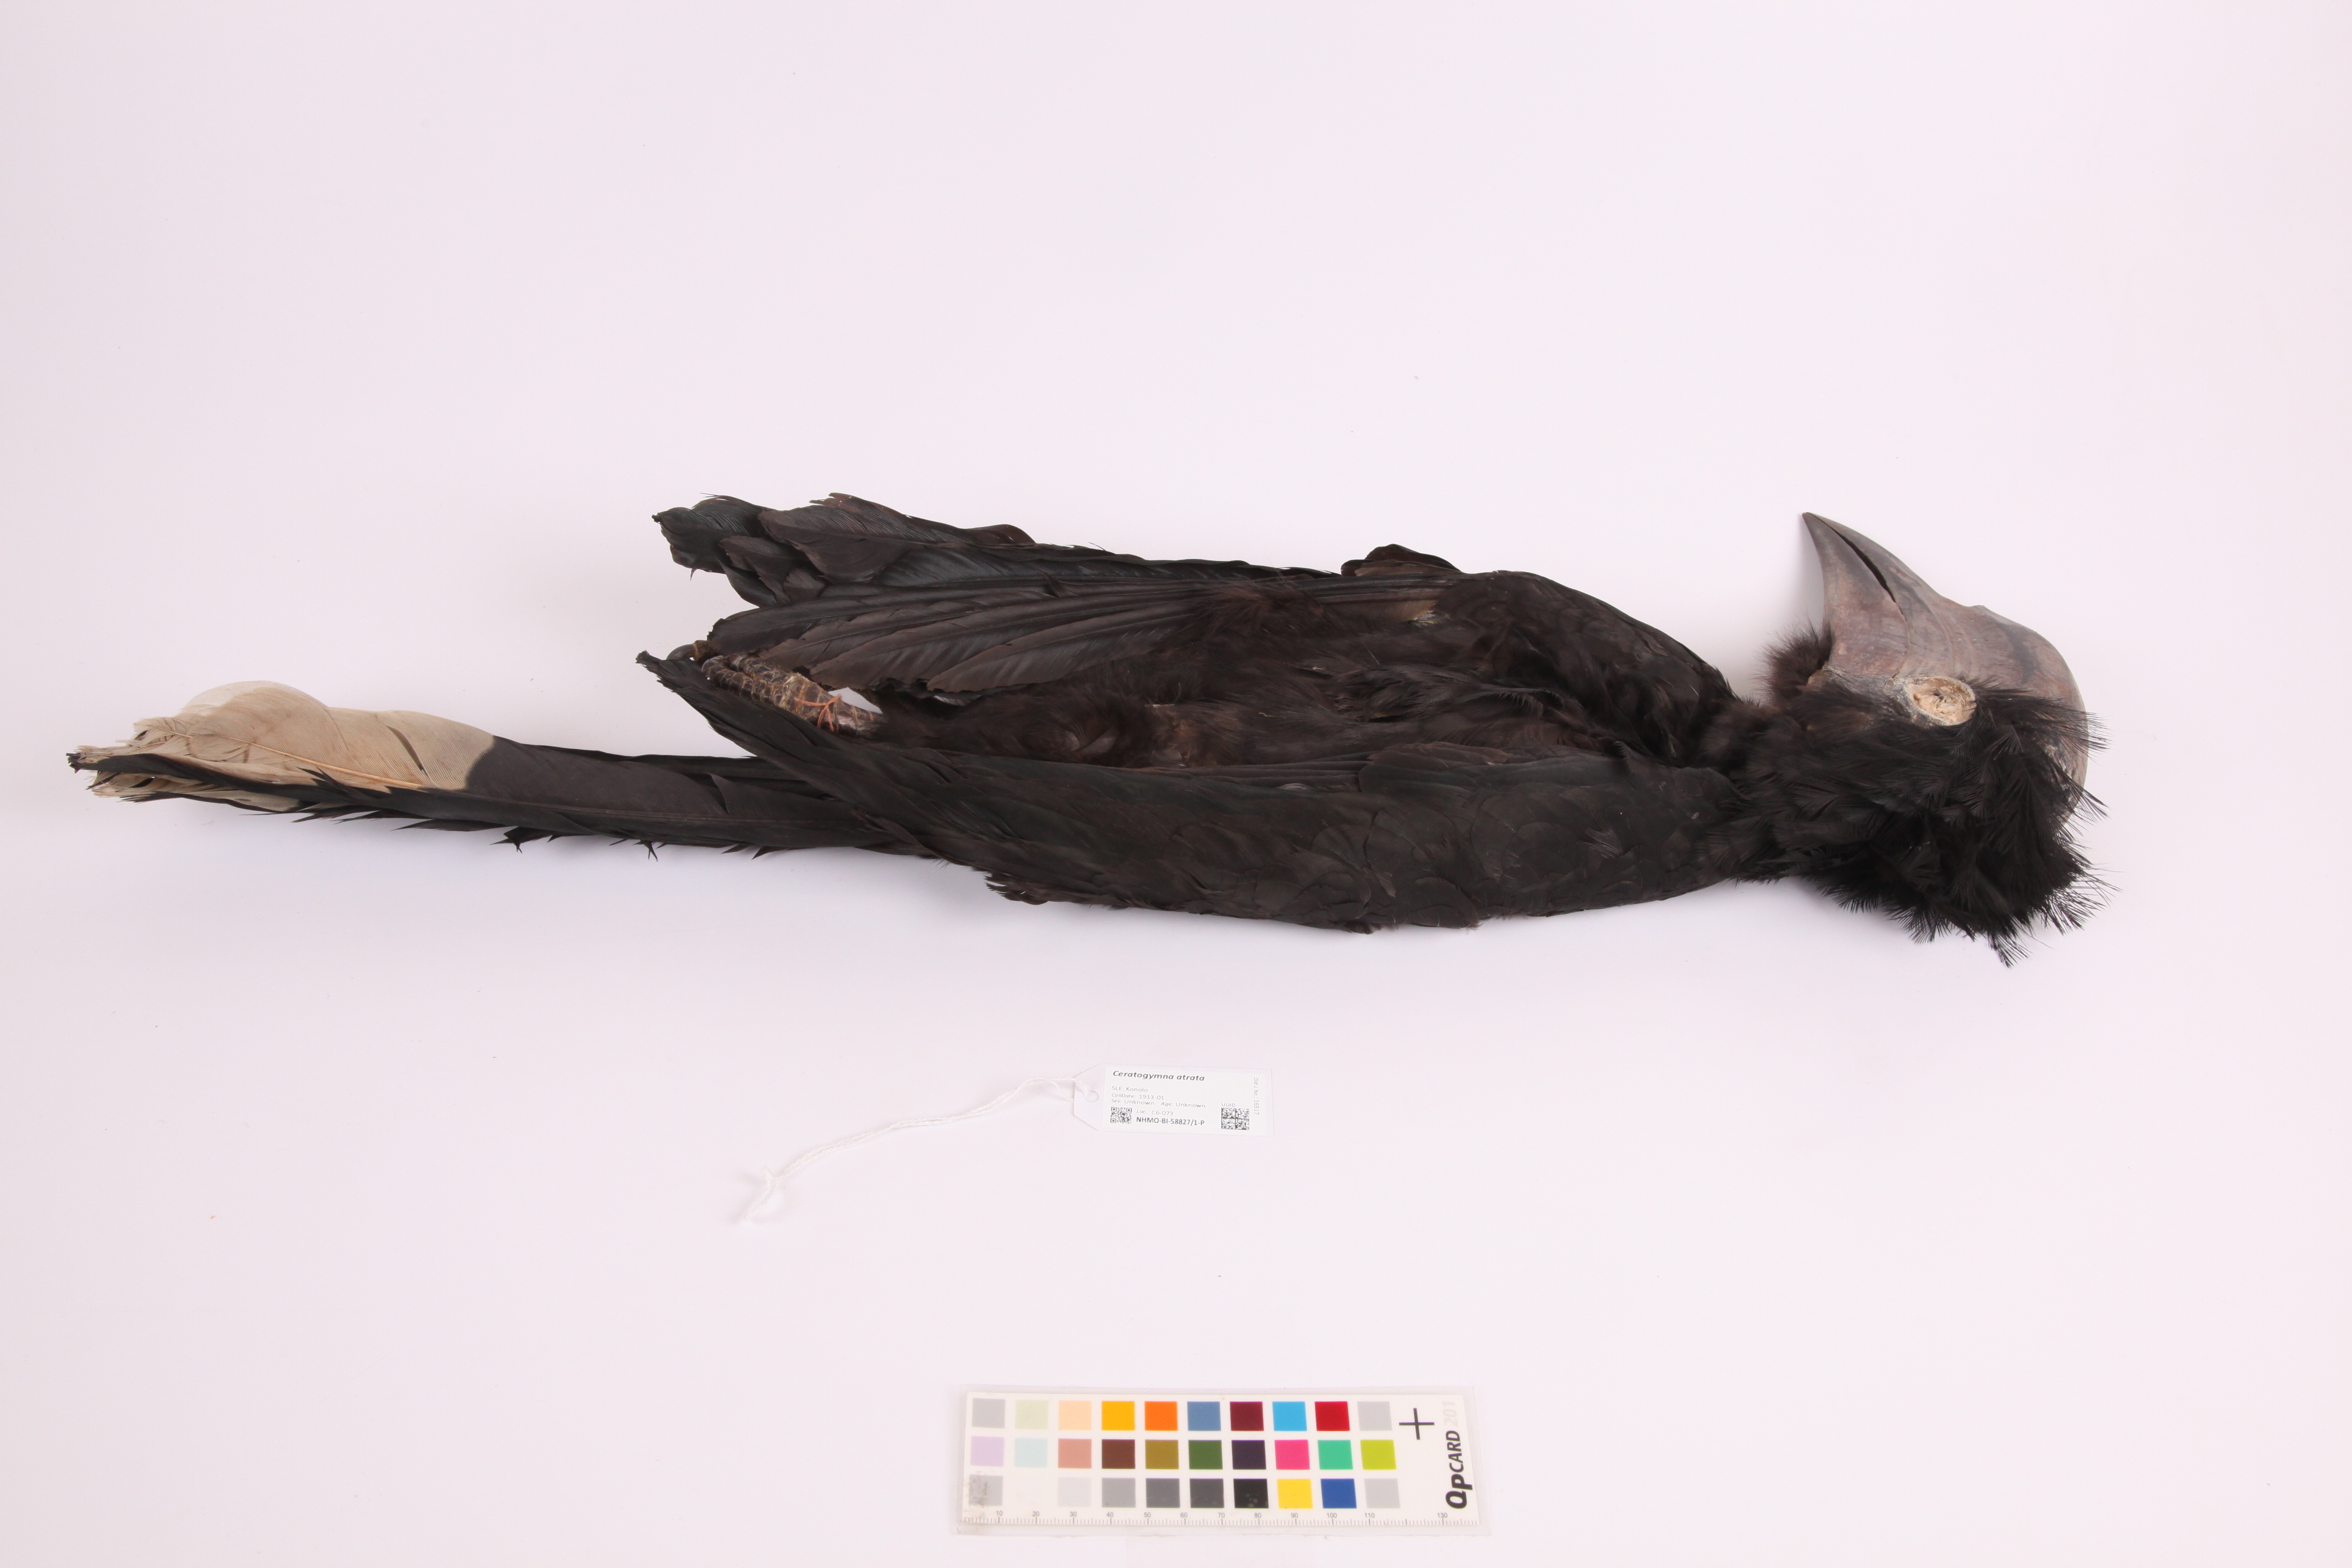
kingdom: Animalia
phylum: Chordata
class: Aves
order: Bucerotiformes
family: Bucerotidae
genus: Ceratogymna
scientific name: Ceratogymna atrata
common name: Black-casqued hornbill
